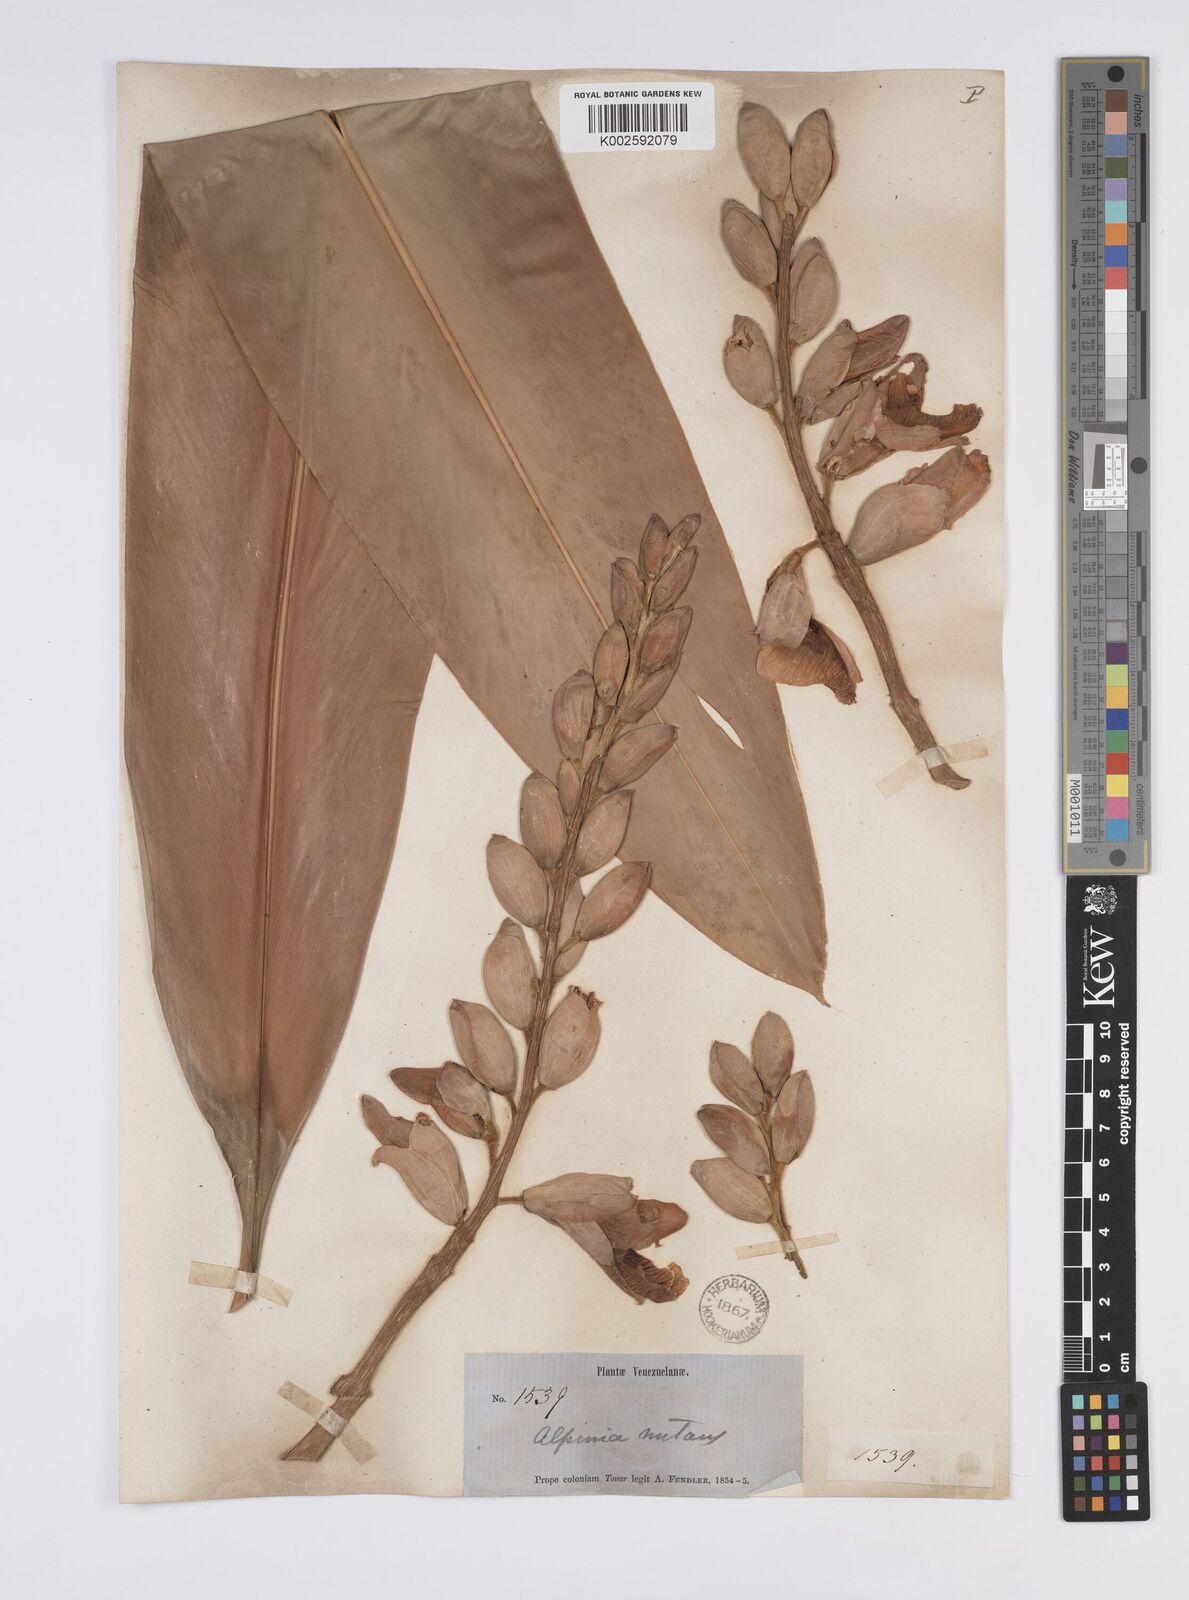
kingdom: Plantae
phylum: Tracheophyta
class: Liliopsida
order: Zingiberales
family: Zingiberaceae
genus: Alpinia
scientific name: Alpinia
